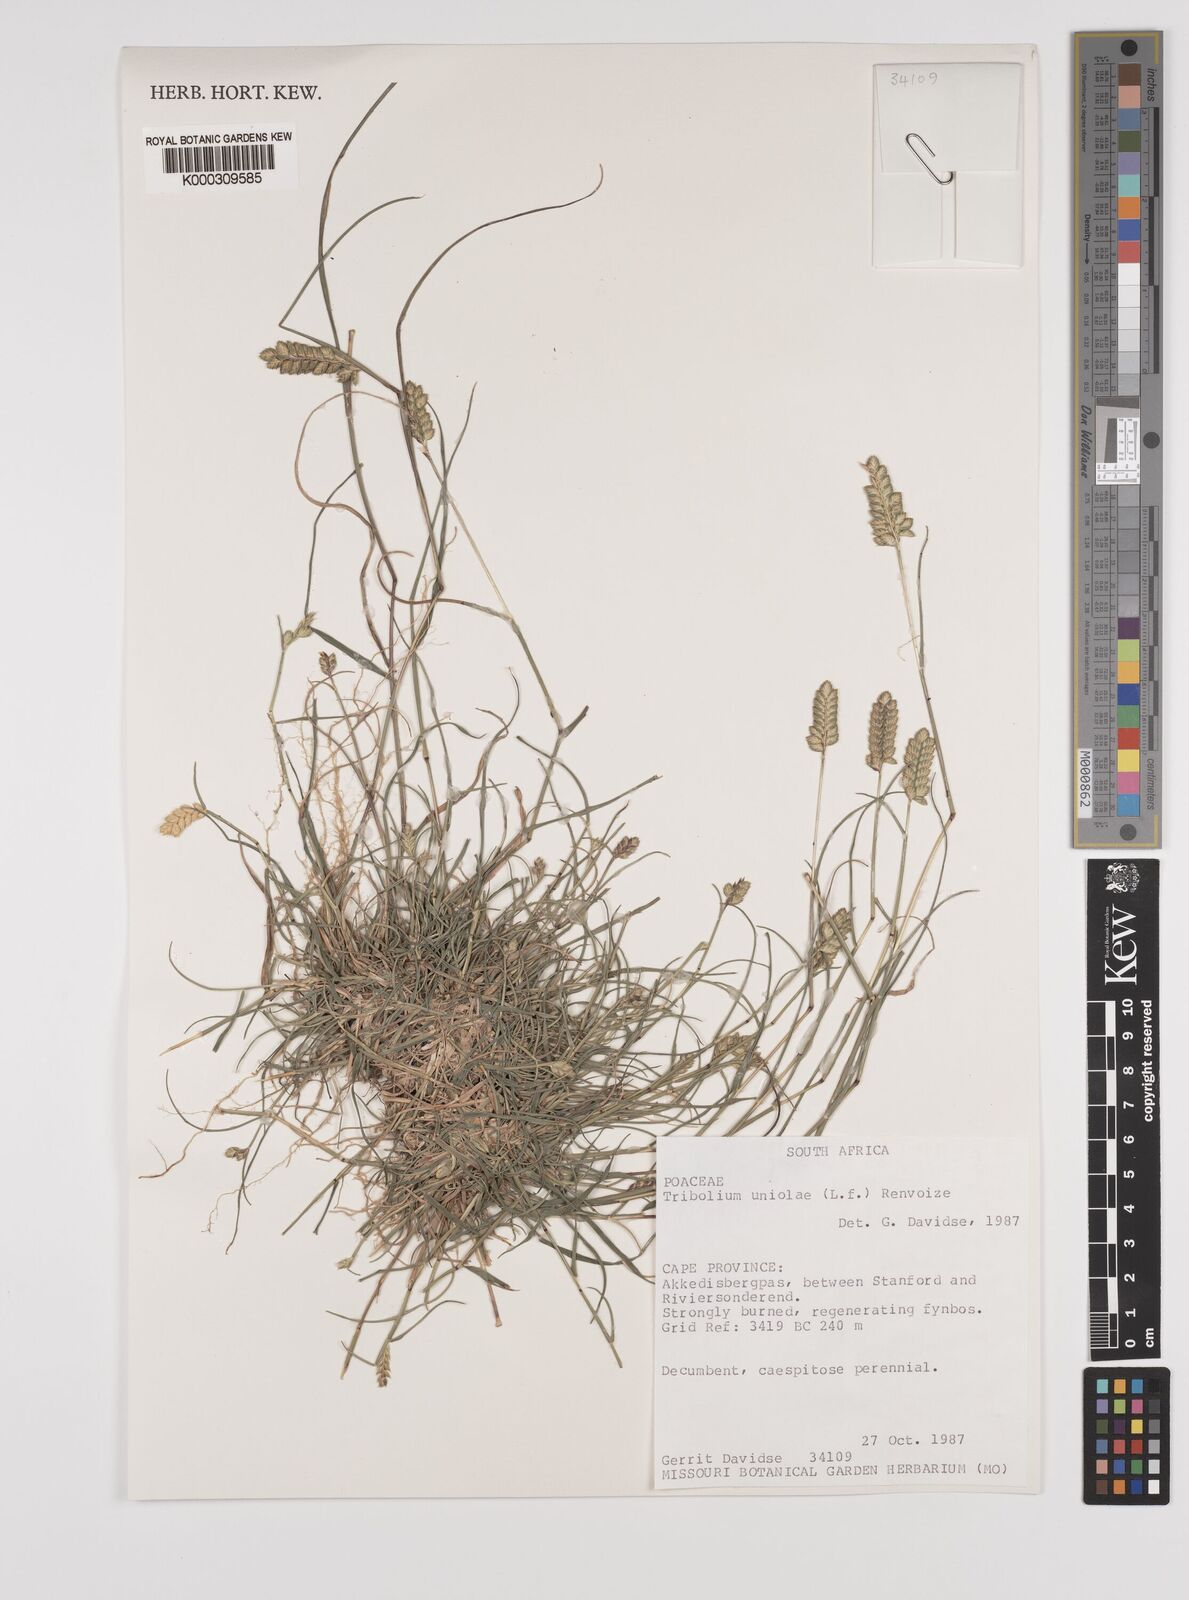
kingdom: Plantae
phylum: Tracheophyta
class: Liliopsida
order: Poales
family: Poaceae
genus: Tribolium
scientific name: Tribolium uniolae
